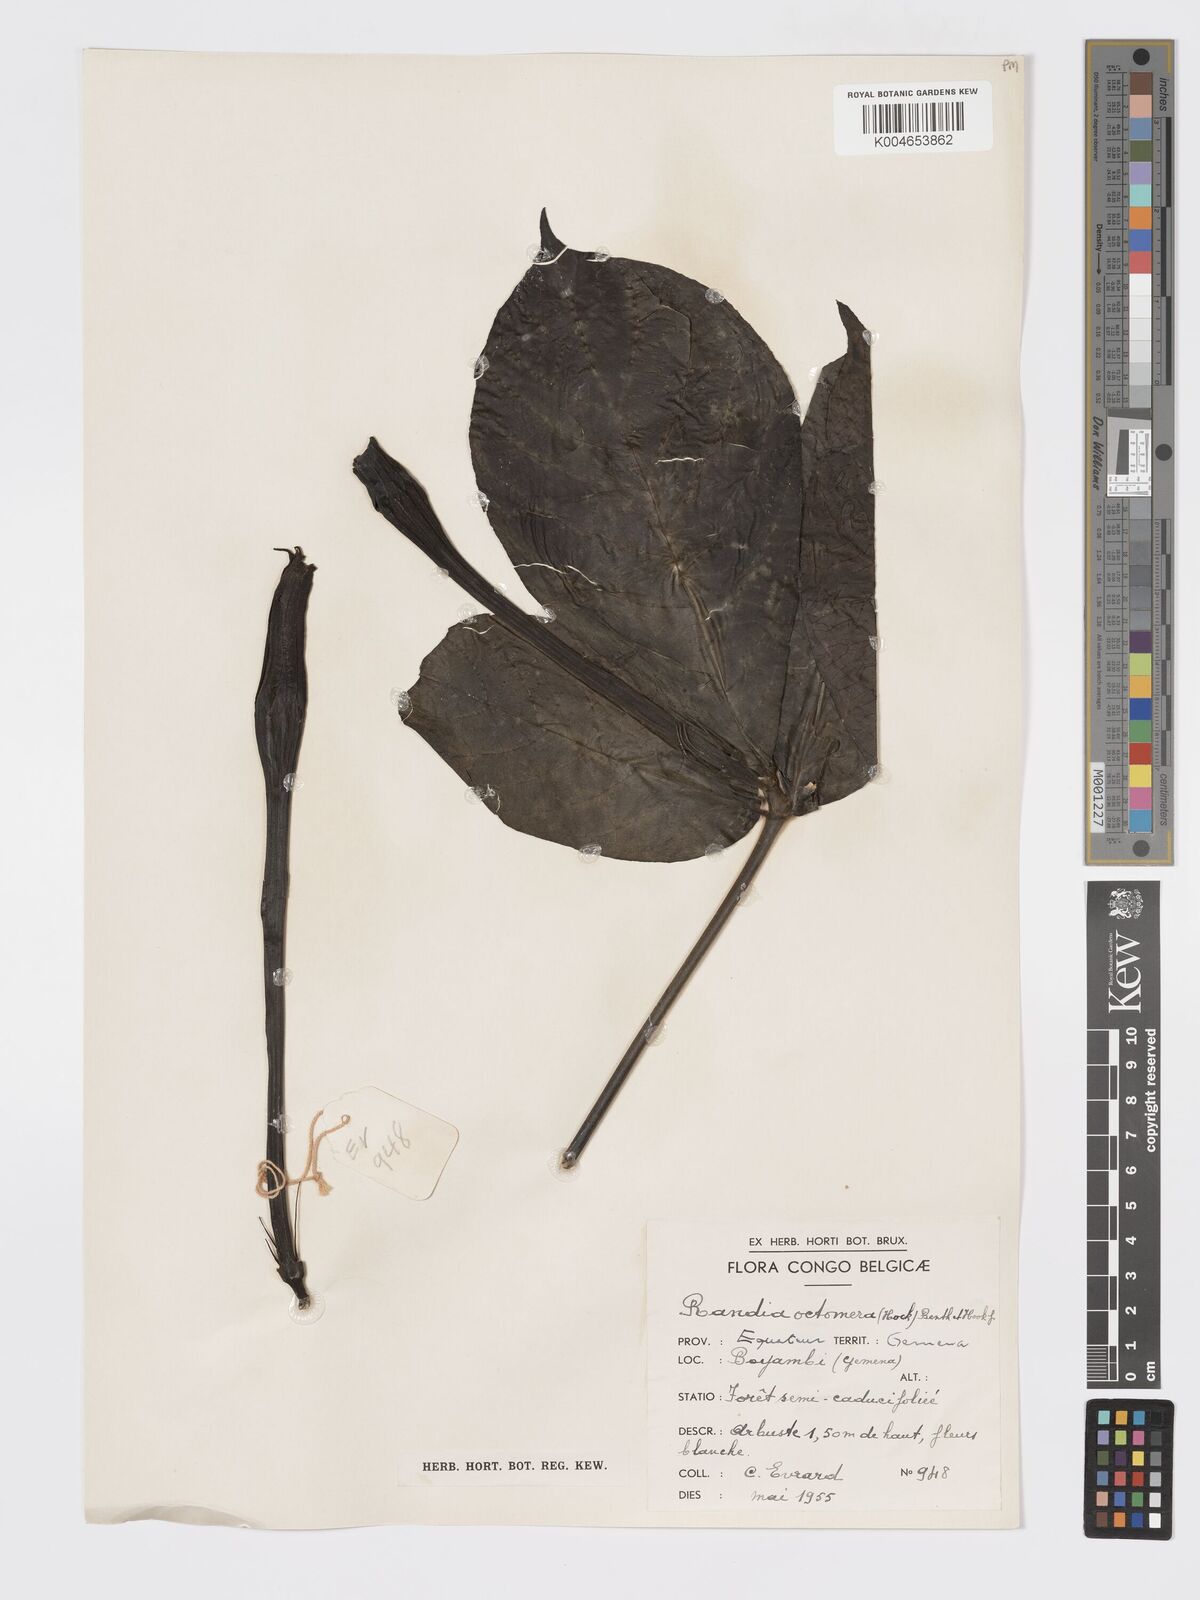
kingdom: Plantae
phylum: Tracheophyta
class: Magnoliopsida
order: Gentianales
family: Rubiaceae
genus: Rothmannia
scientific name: Rothmannia octomera
